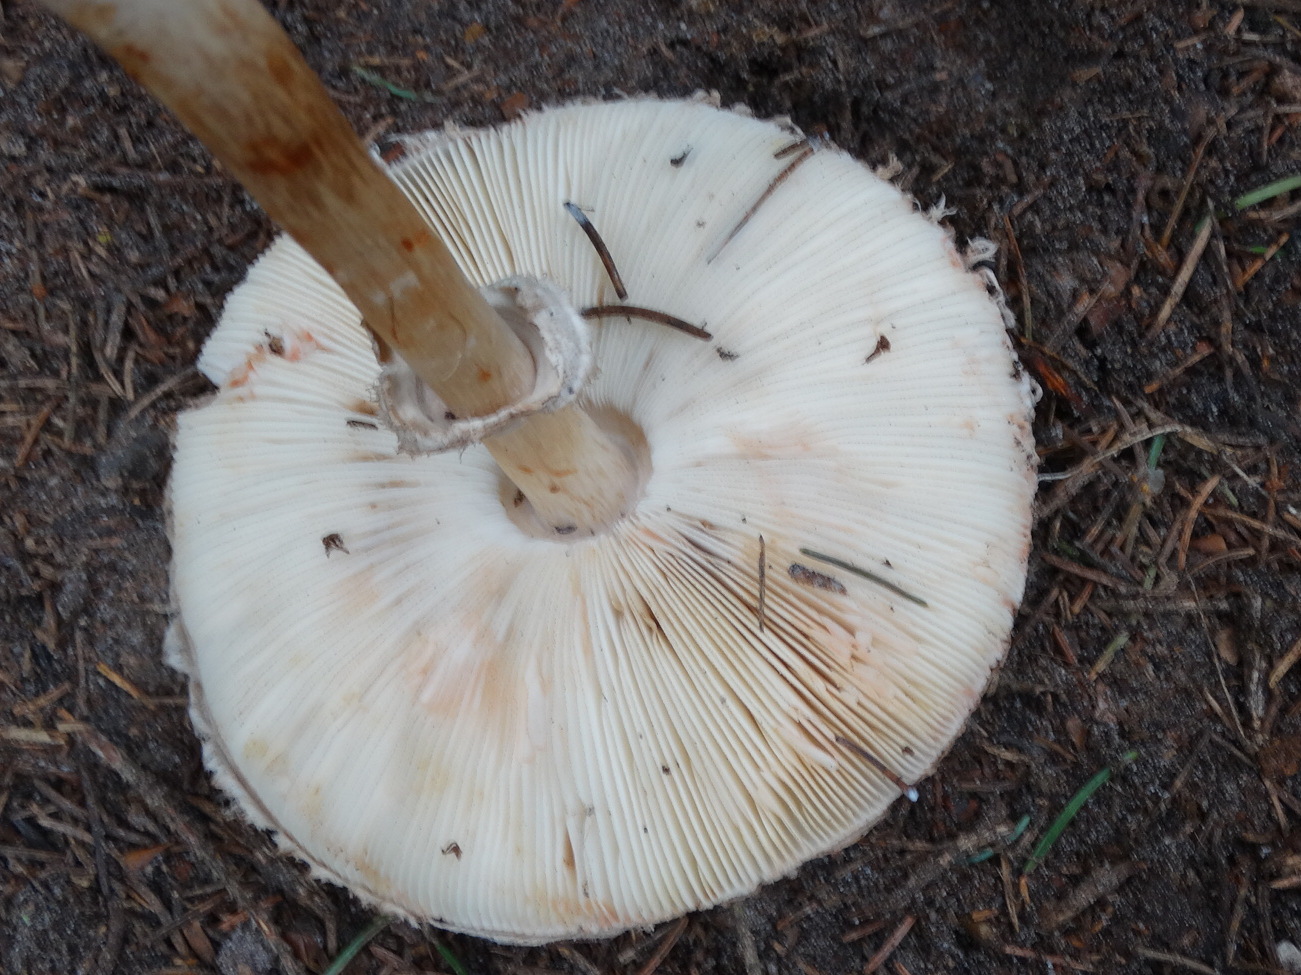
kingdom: Fungi
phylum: Basidiomycota
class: Agaricomycetes
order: Agaricales
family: Agaricaceae
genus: Chlorophyllum
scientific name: Chlorophyllum olivieri
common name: almindelig rabarberhat
